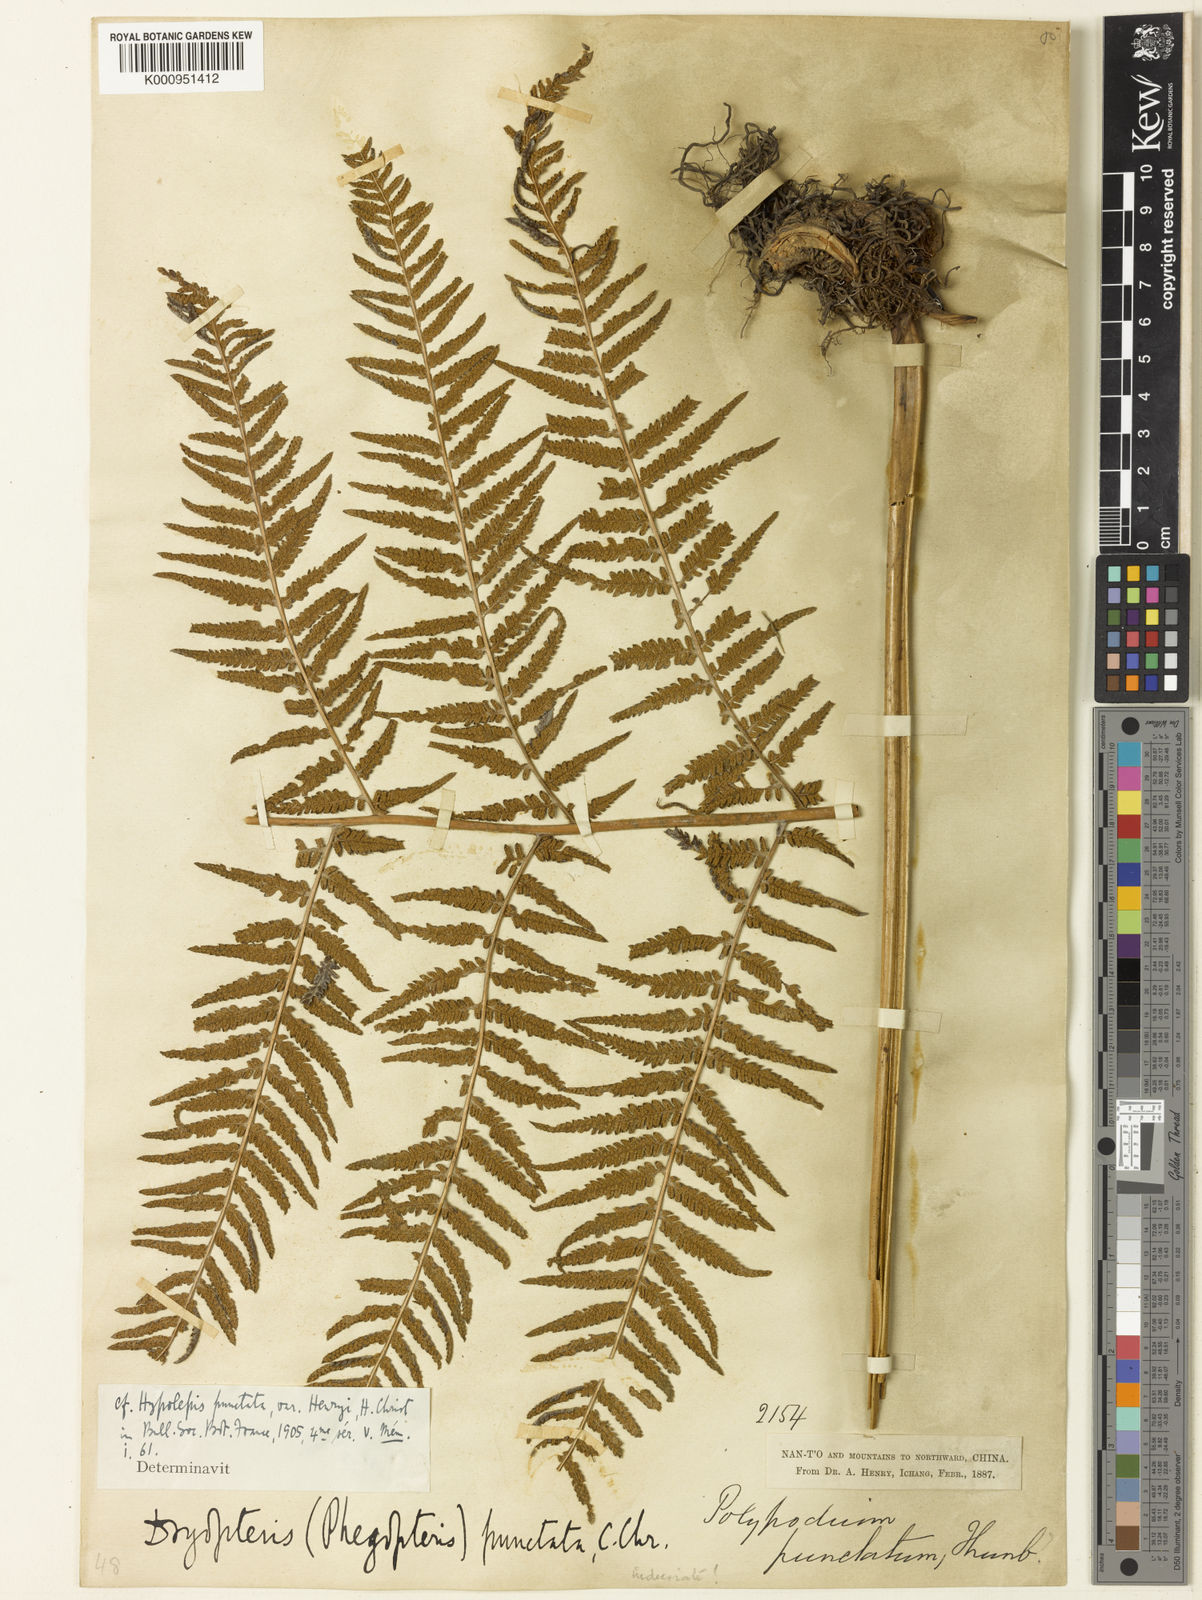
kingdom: Plantae
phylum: Tracheophyta
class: Polypodiopsida
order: Polypodiales
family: Thelypteridaceae
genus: Macrothelypteris
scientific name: Macrothelypteris oligophlebia
